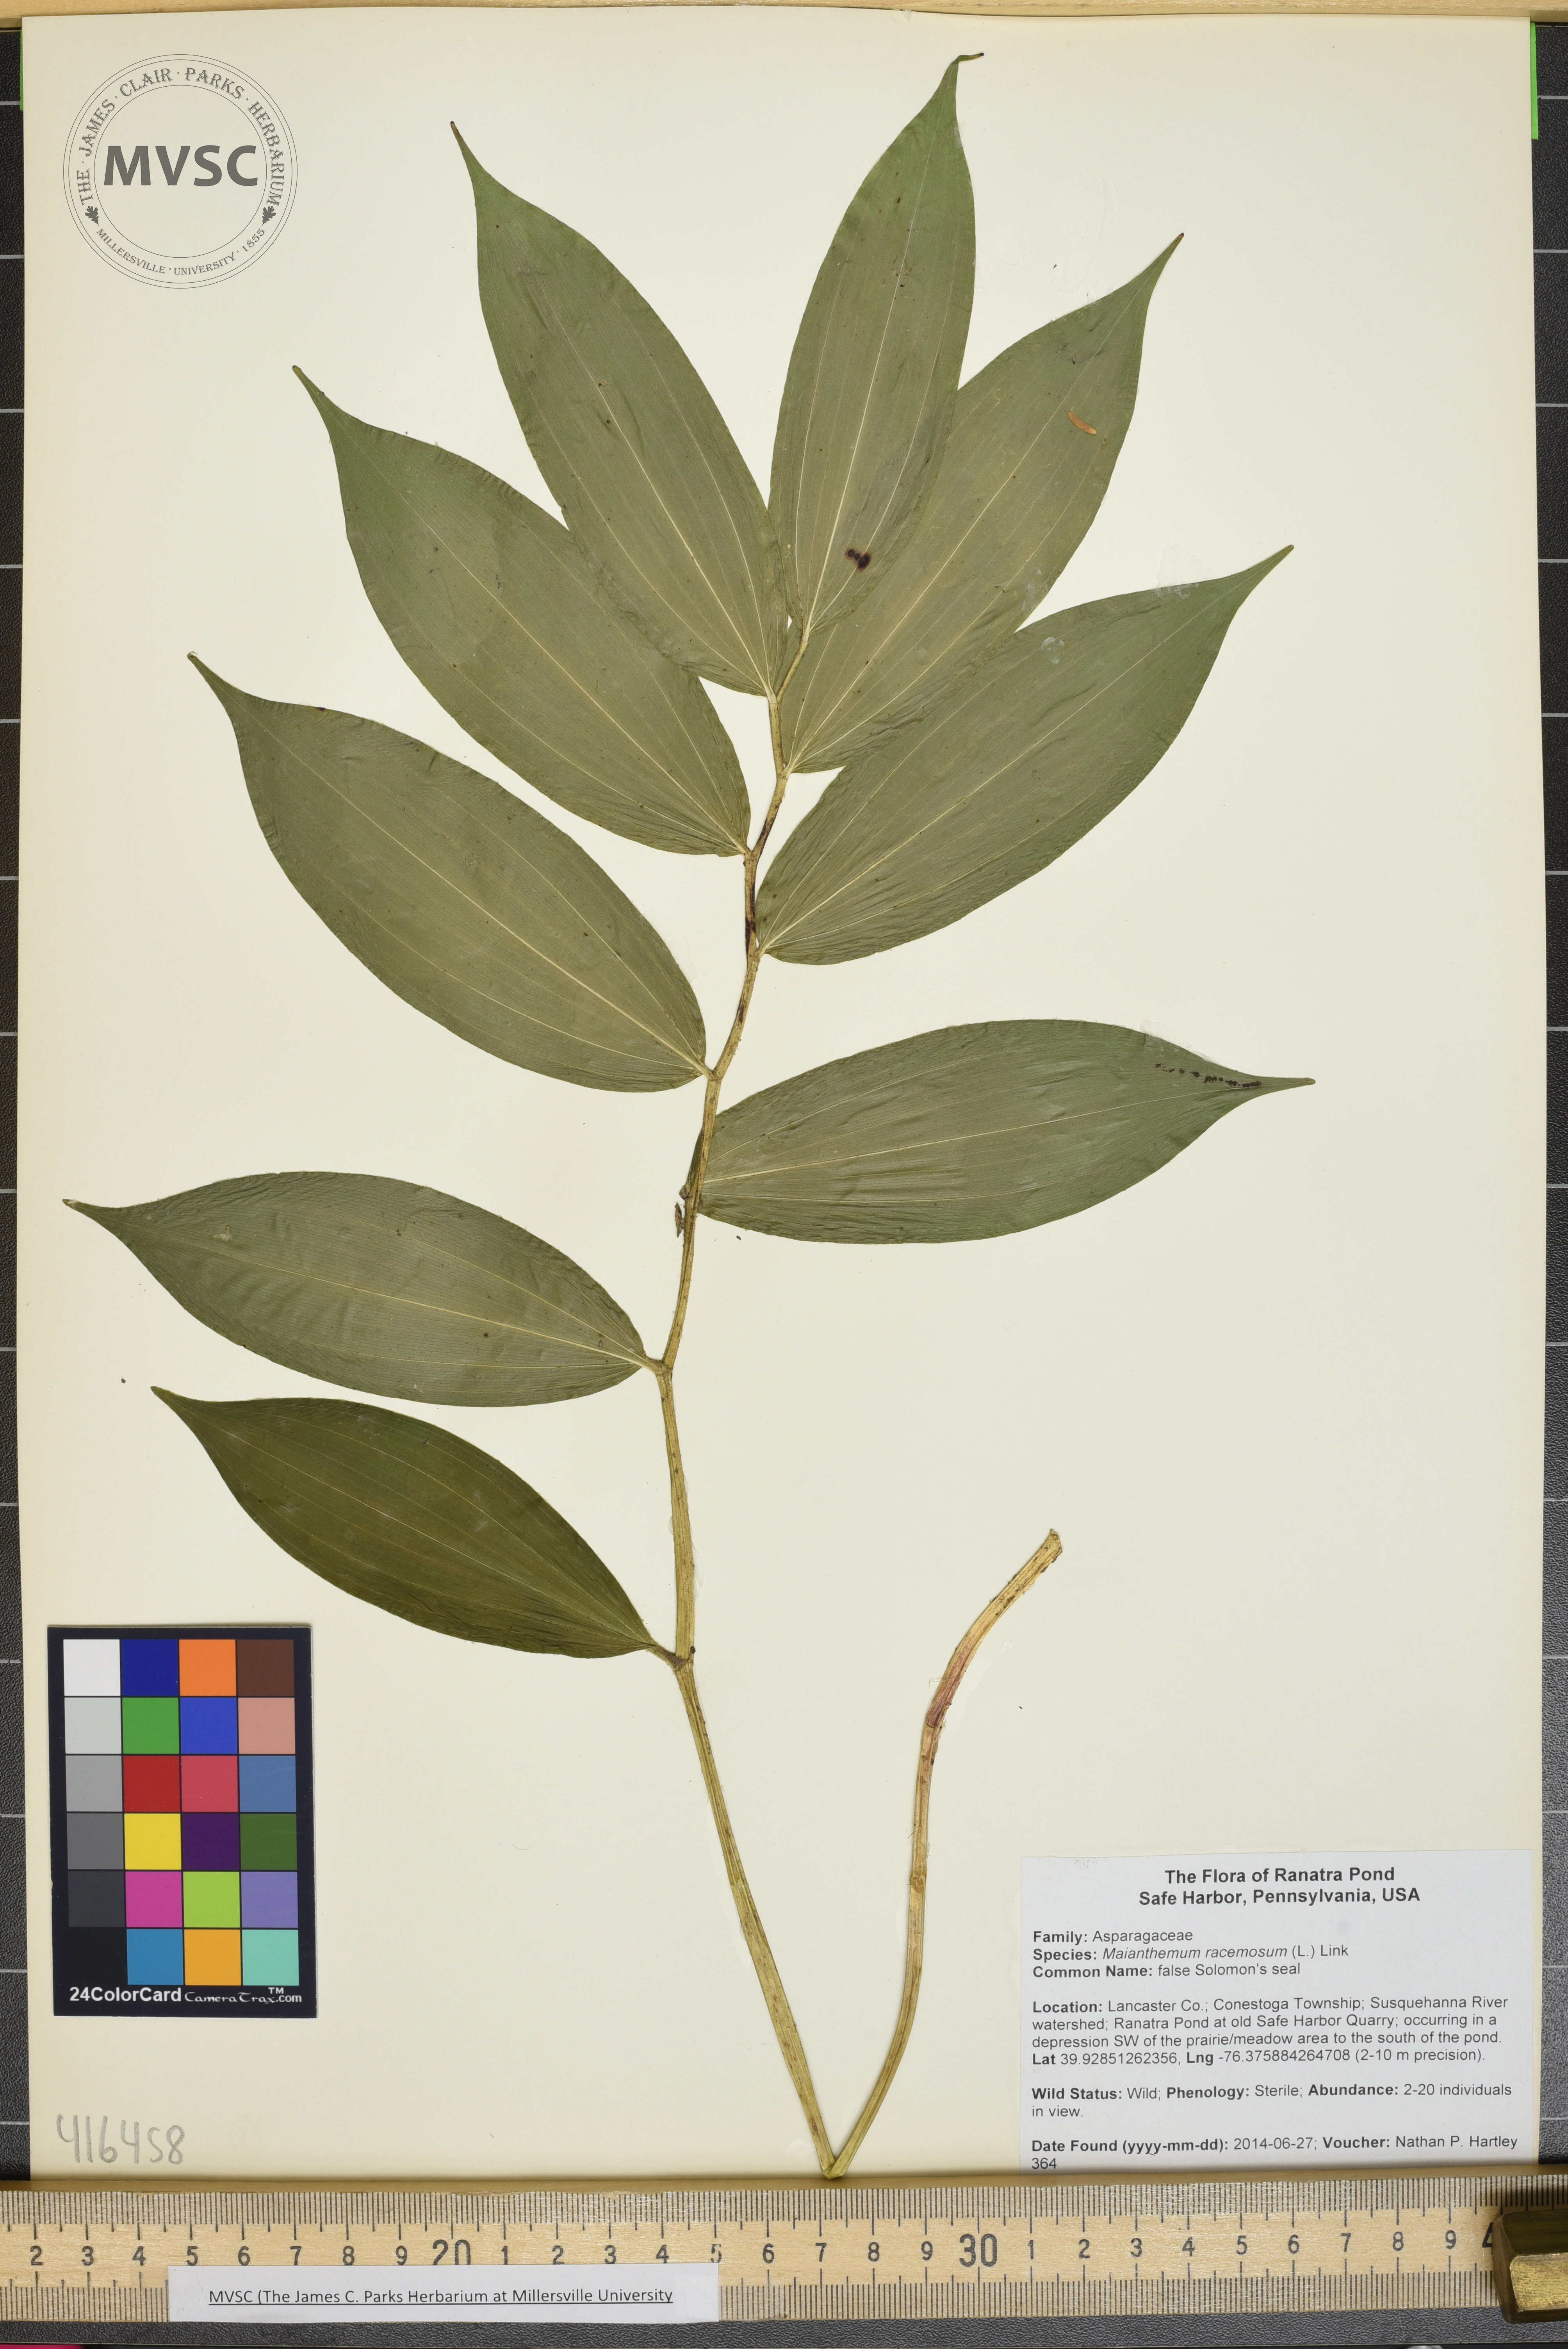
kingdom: Plantae
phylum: Tracheophyta
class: Liliopsida
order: Asparagales
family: Asparagaceae
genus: Maianthemum
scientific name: Maianthemum racemosum
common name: false Solomon's seal
